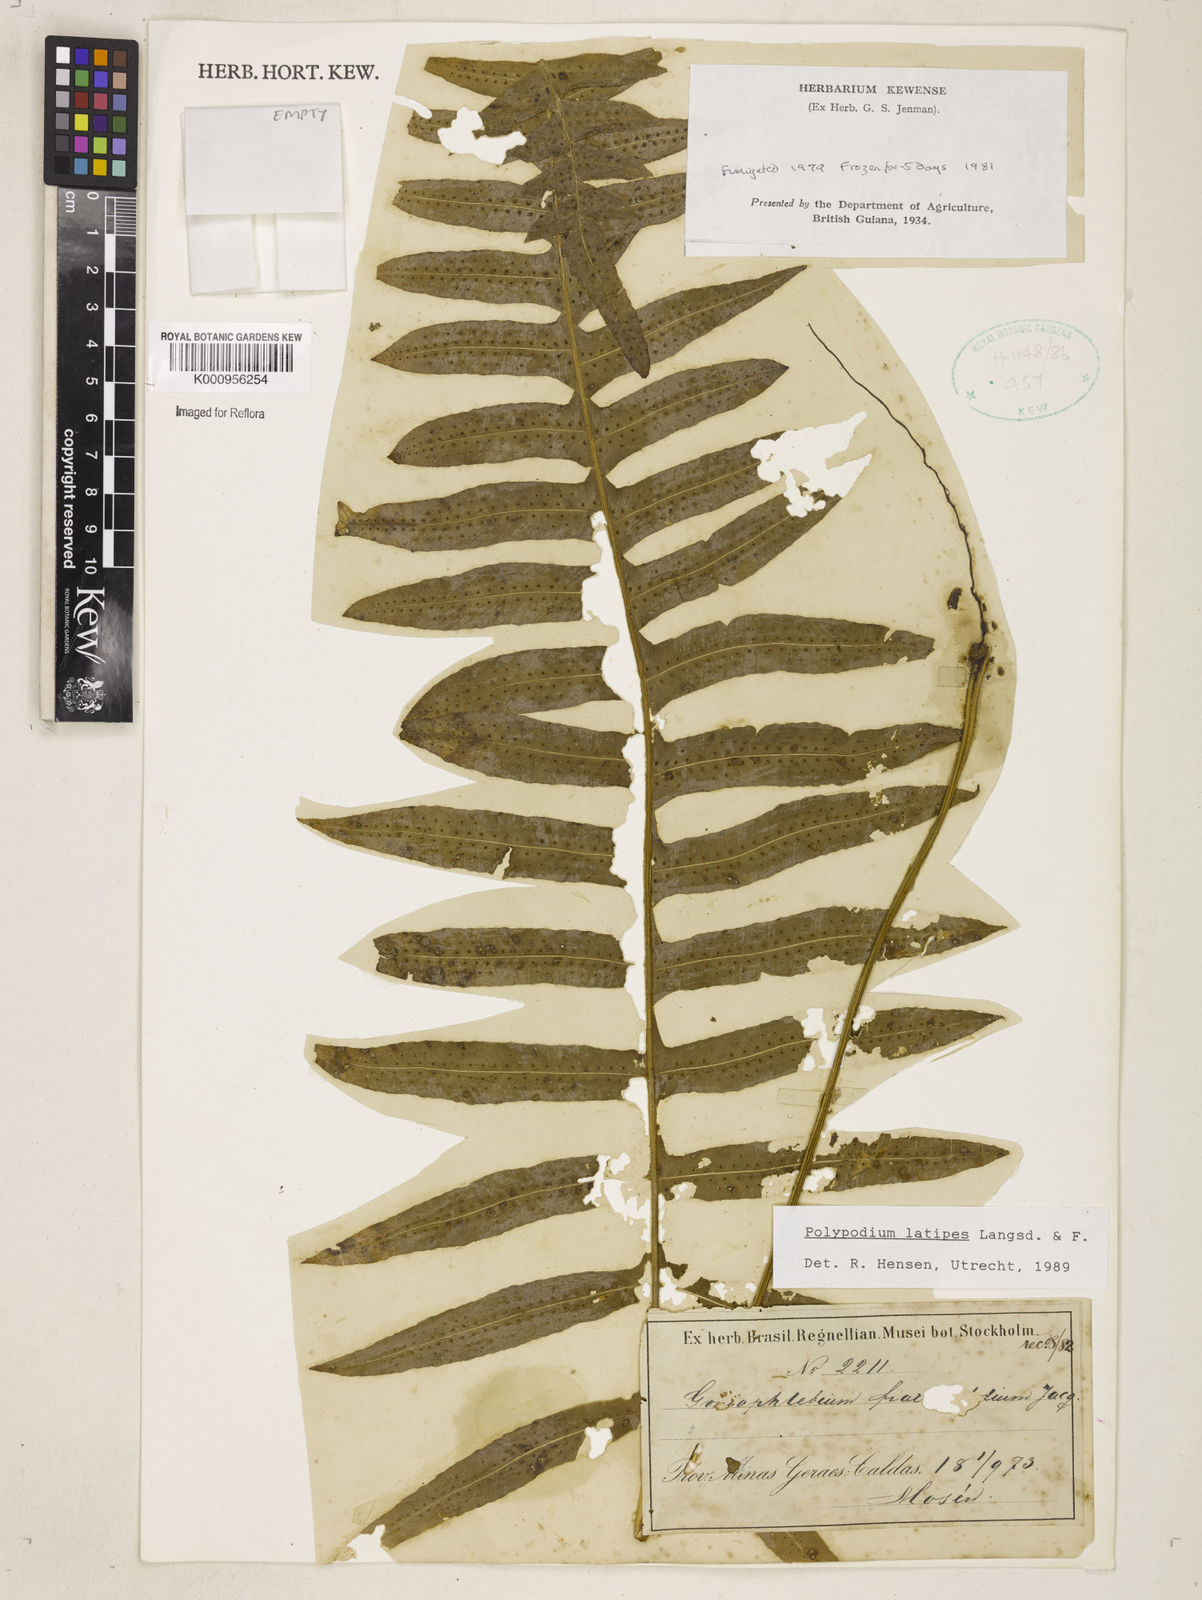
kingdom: Plantae
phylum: Tracheophyta
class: Polypodiopsida
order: Polypodiales
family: Polypodiaceae
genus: Serpocaulon
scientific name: Serpocaulon loriceum
